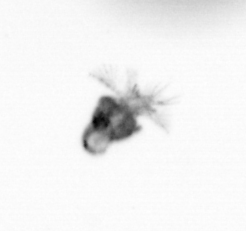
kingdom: Animalia
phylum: Arthropoda
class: Copepoda
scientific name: Copepoda
